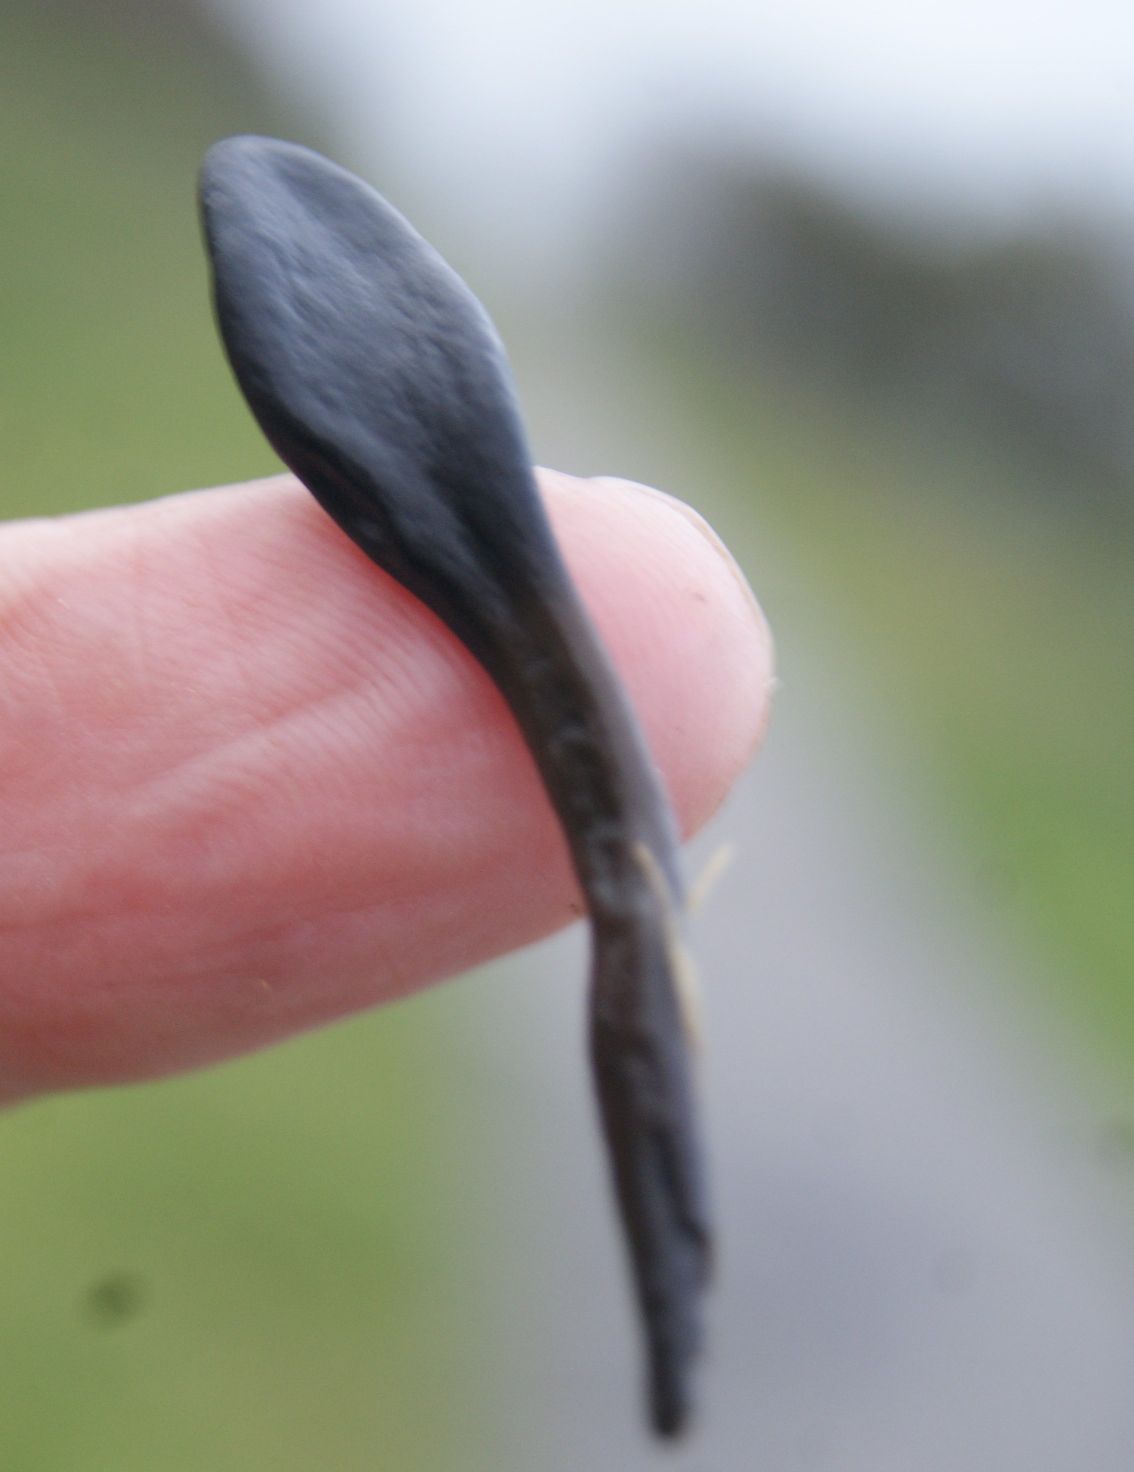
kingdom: Fungi
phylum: Ascomycota
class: Geoglossomycetes
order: Geoglossales
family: Geoglossaceae
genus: Glutinoglossum
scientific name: Glutinoglossum glutinosum
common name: slimet jordtunge
